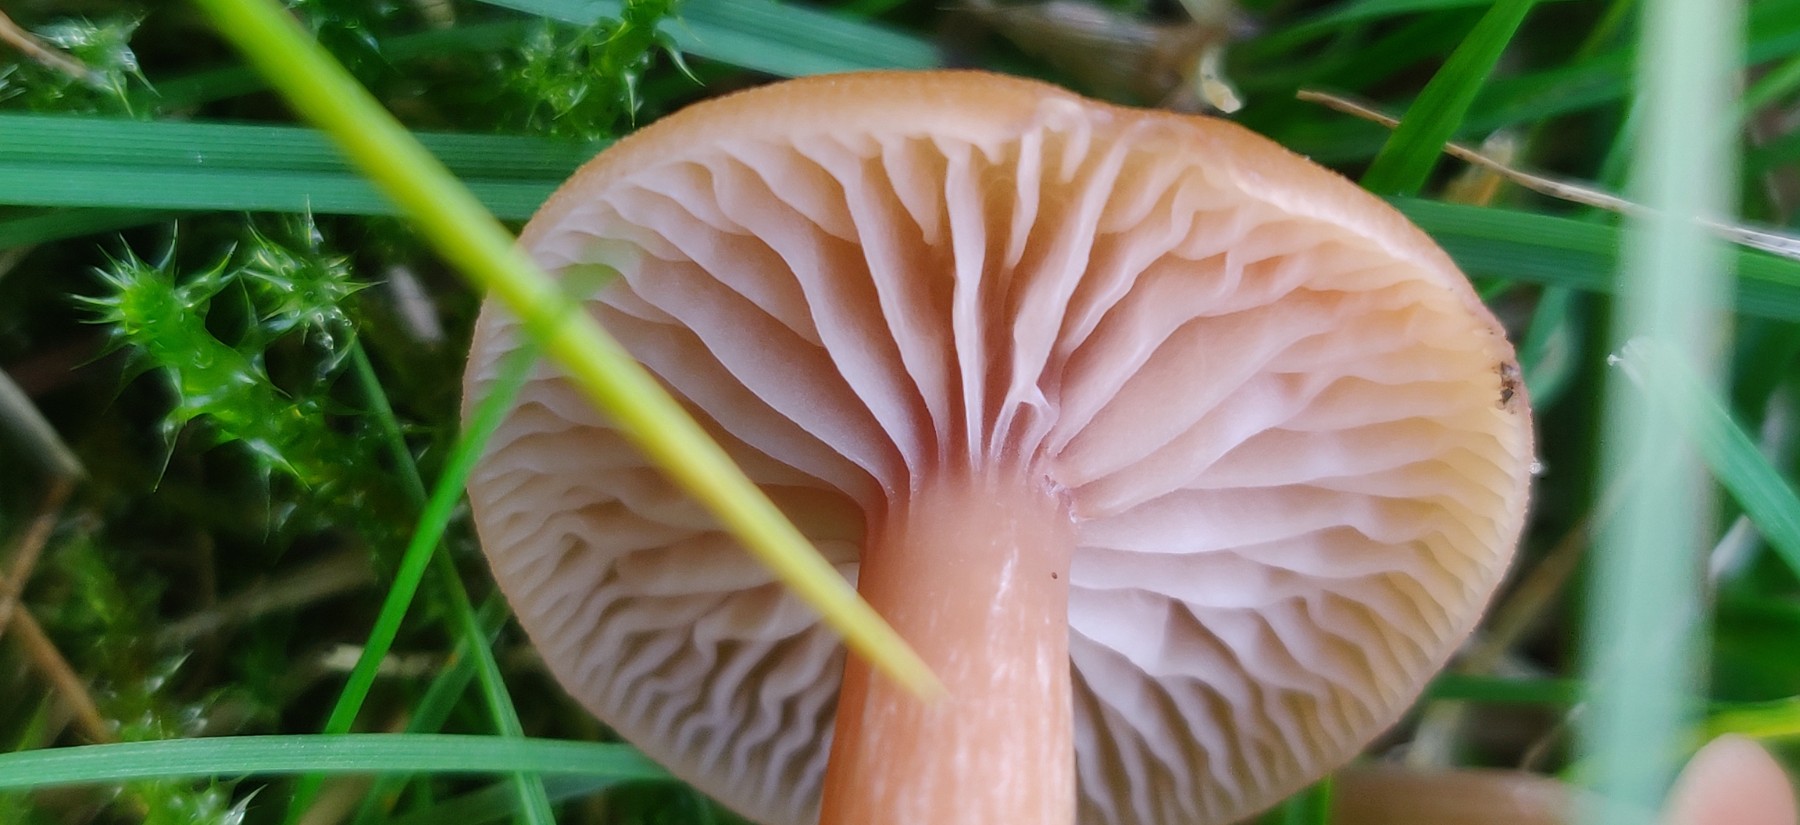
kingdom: Fungi
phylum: Basidiomycota
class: Agaricomycetes
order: Agaricales
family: Hydnangiaceae
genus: Laccaria
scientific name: Laccaria laccata
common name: rød ametysthat
